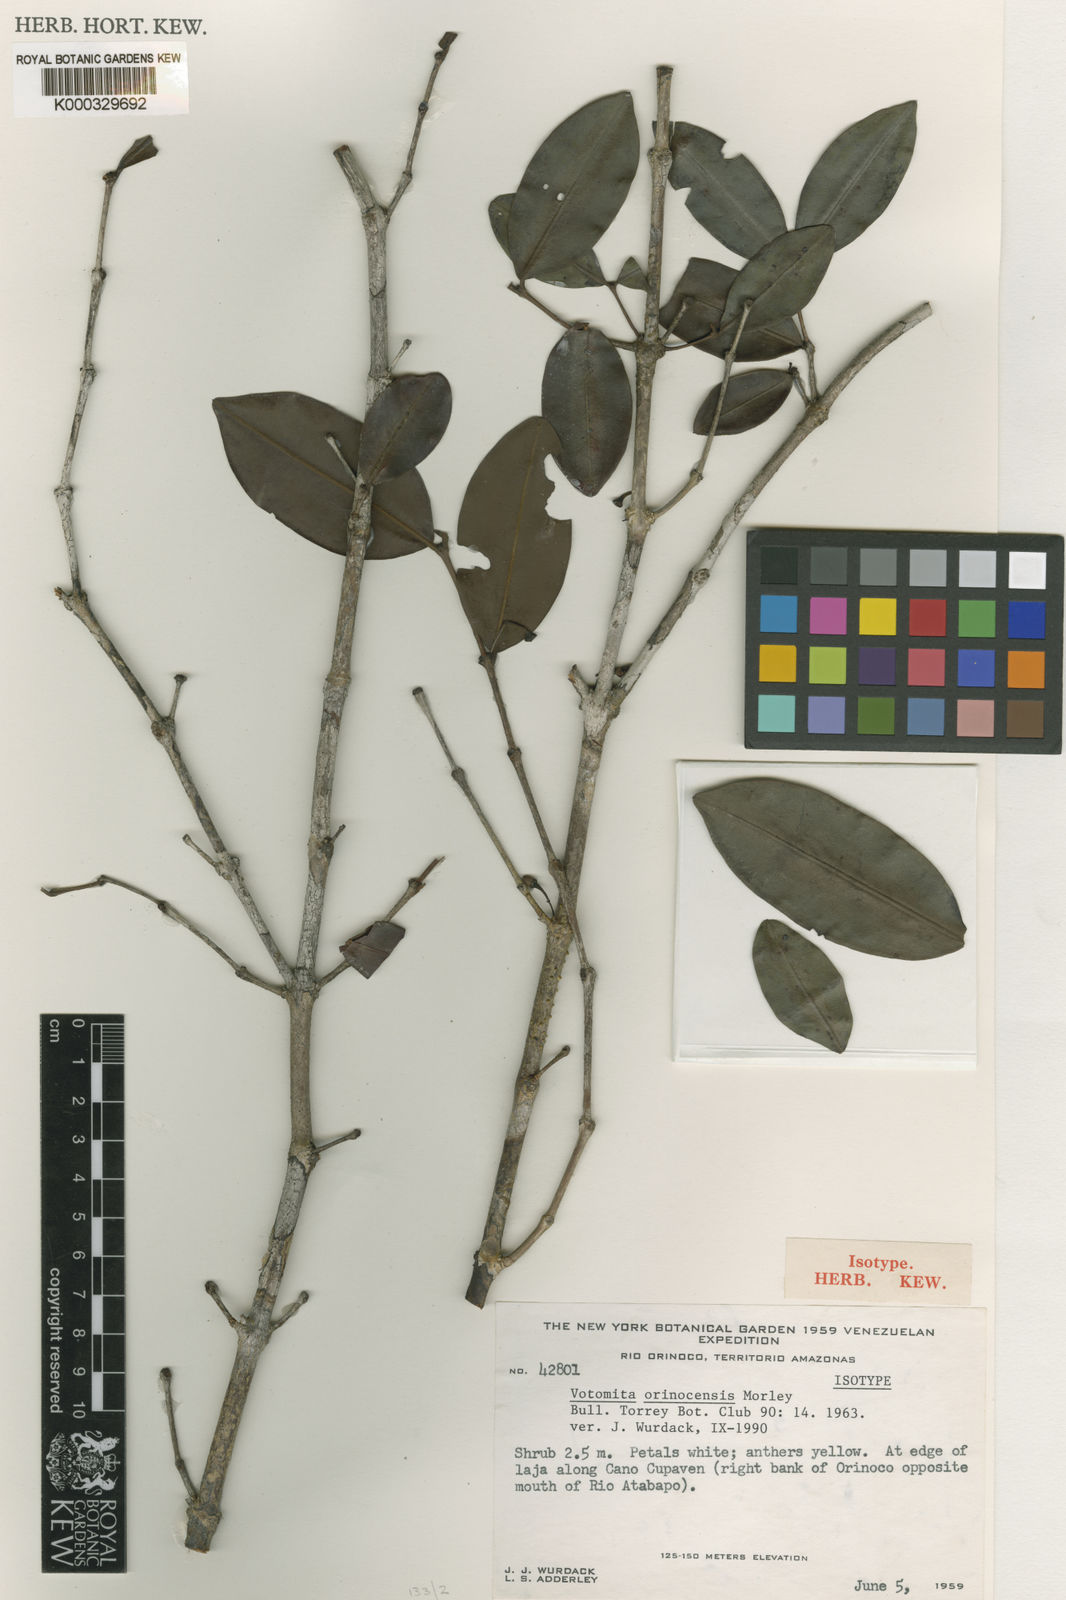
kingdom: Plantae
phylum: Tracheophyta
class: Magnoliopsida
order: Myrtales
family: Melastomataceae
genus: Votomita
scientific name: Votomita orinocensis
